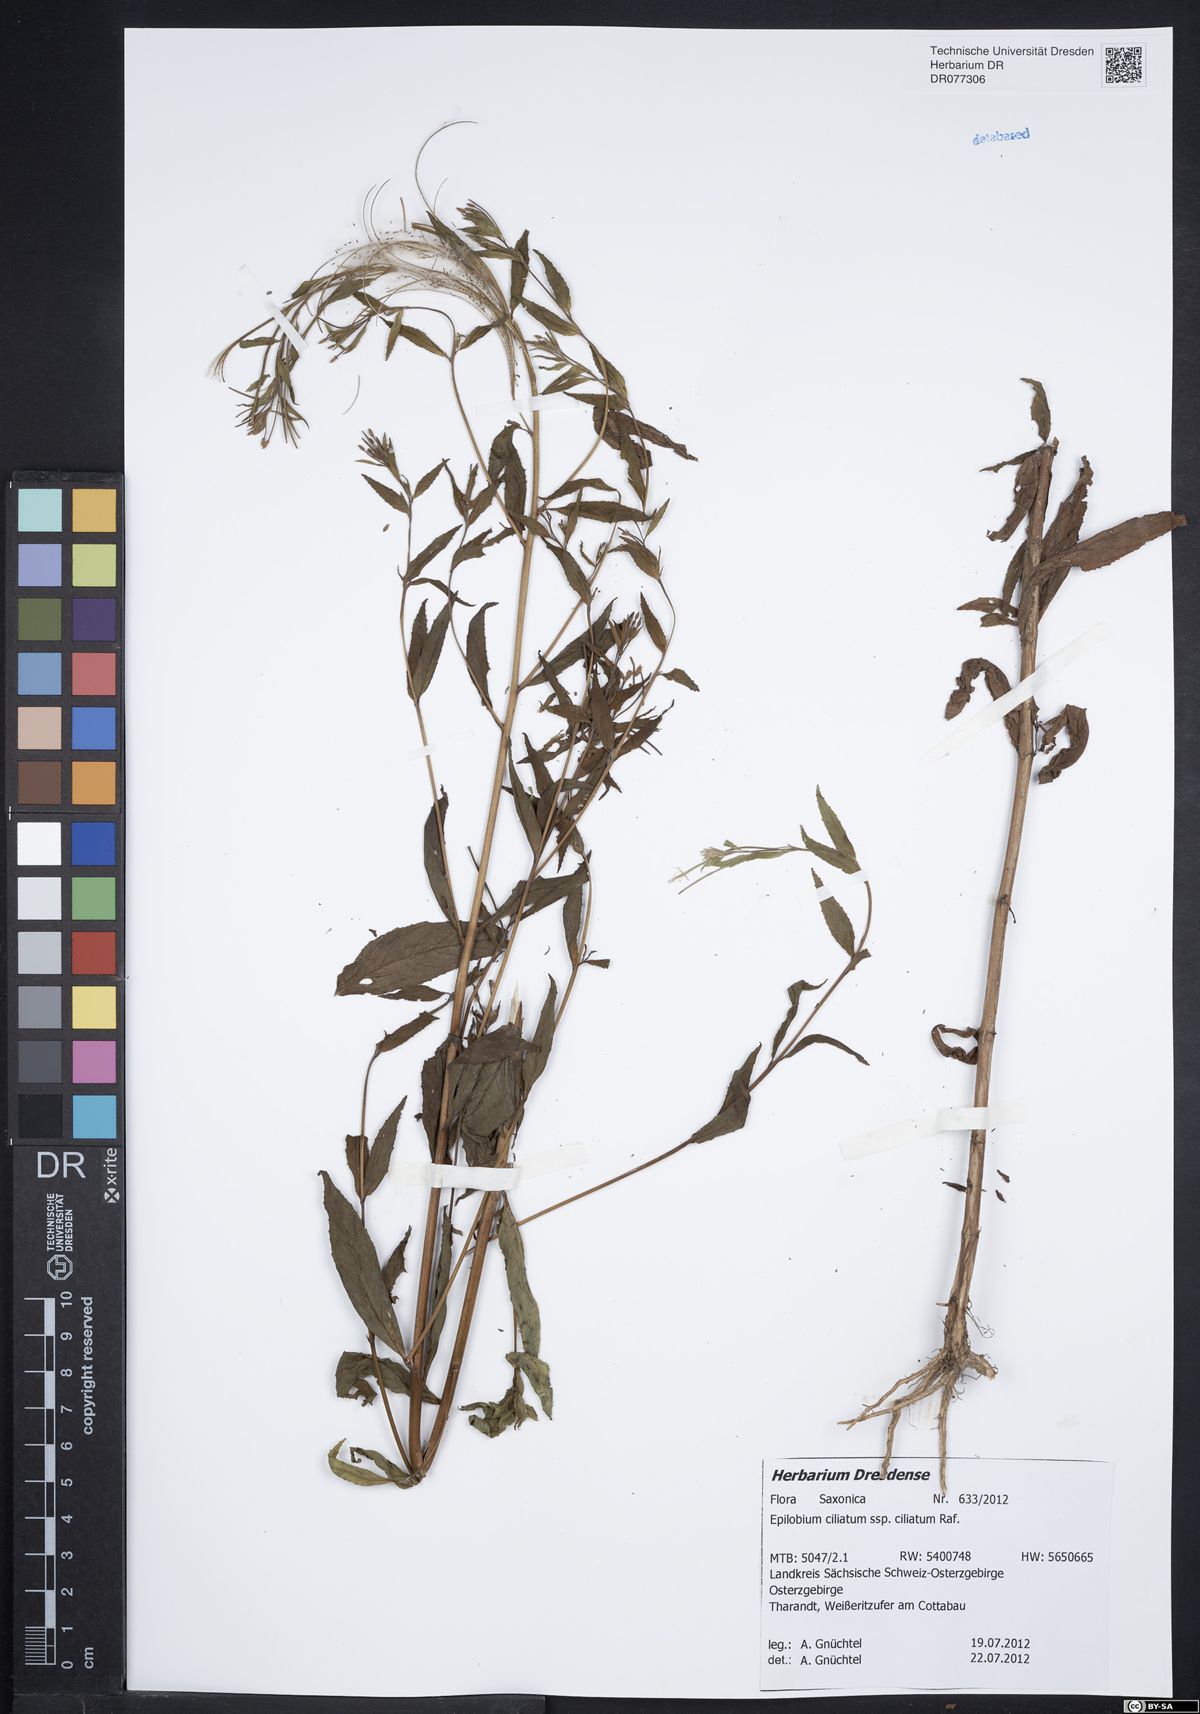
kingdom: Plantae
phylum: Tracheophyta
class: Magnoliopsida
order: Myrtales
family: Onagraceae
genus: Epilobium
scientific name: Epilobium ciliatum
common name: American willowherb
